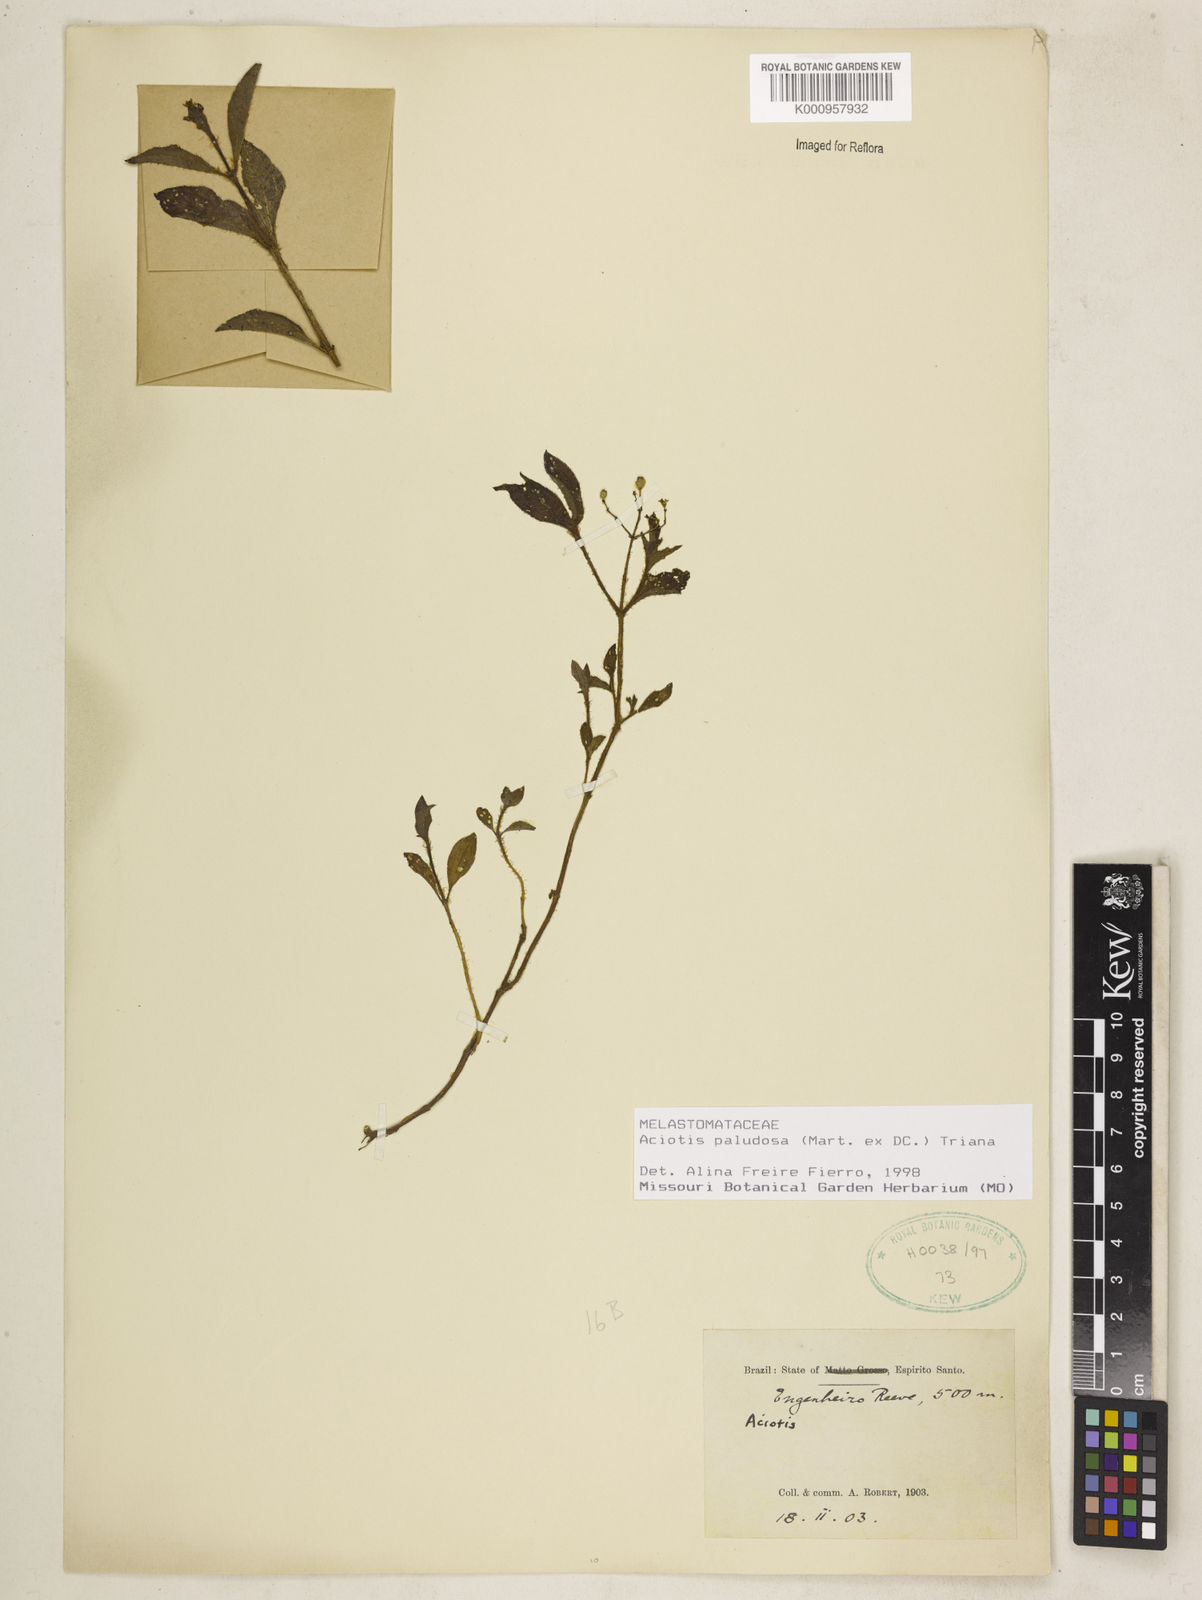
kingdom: Plantae
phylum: Tracheophyta
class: Magnoliopsida
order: Myrtales
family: Melastomataceae
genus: Aciotis
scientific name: Aciotis paludosa
